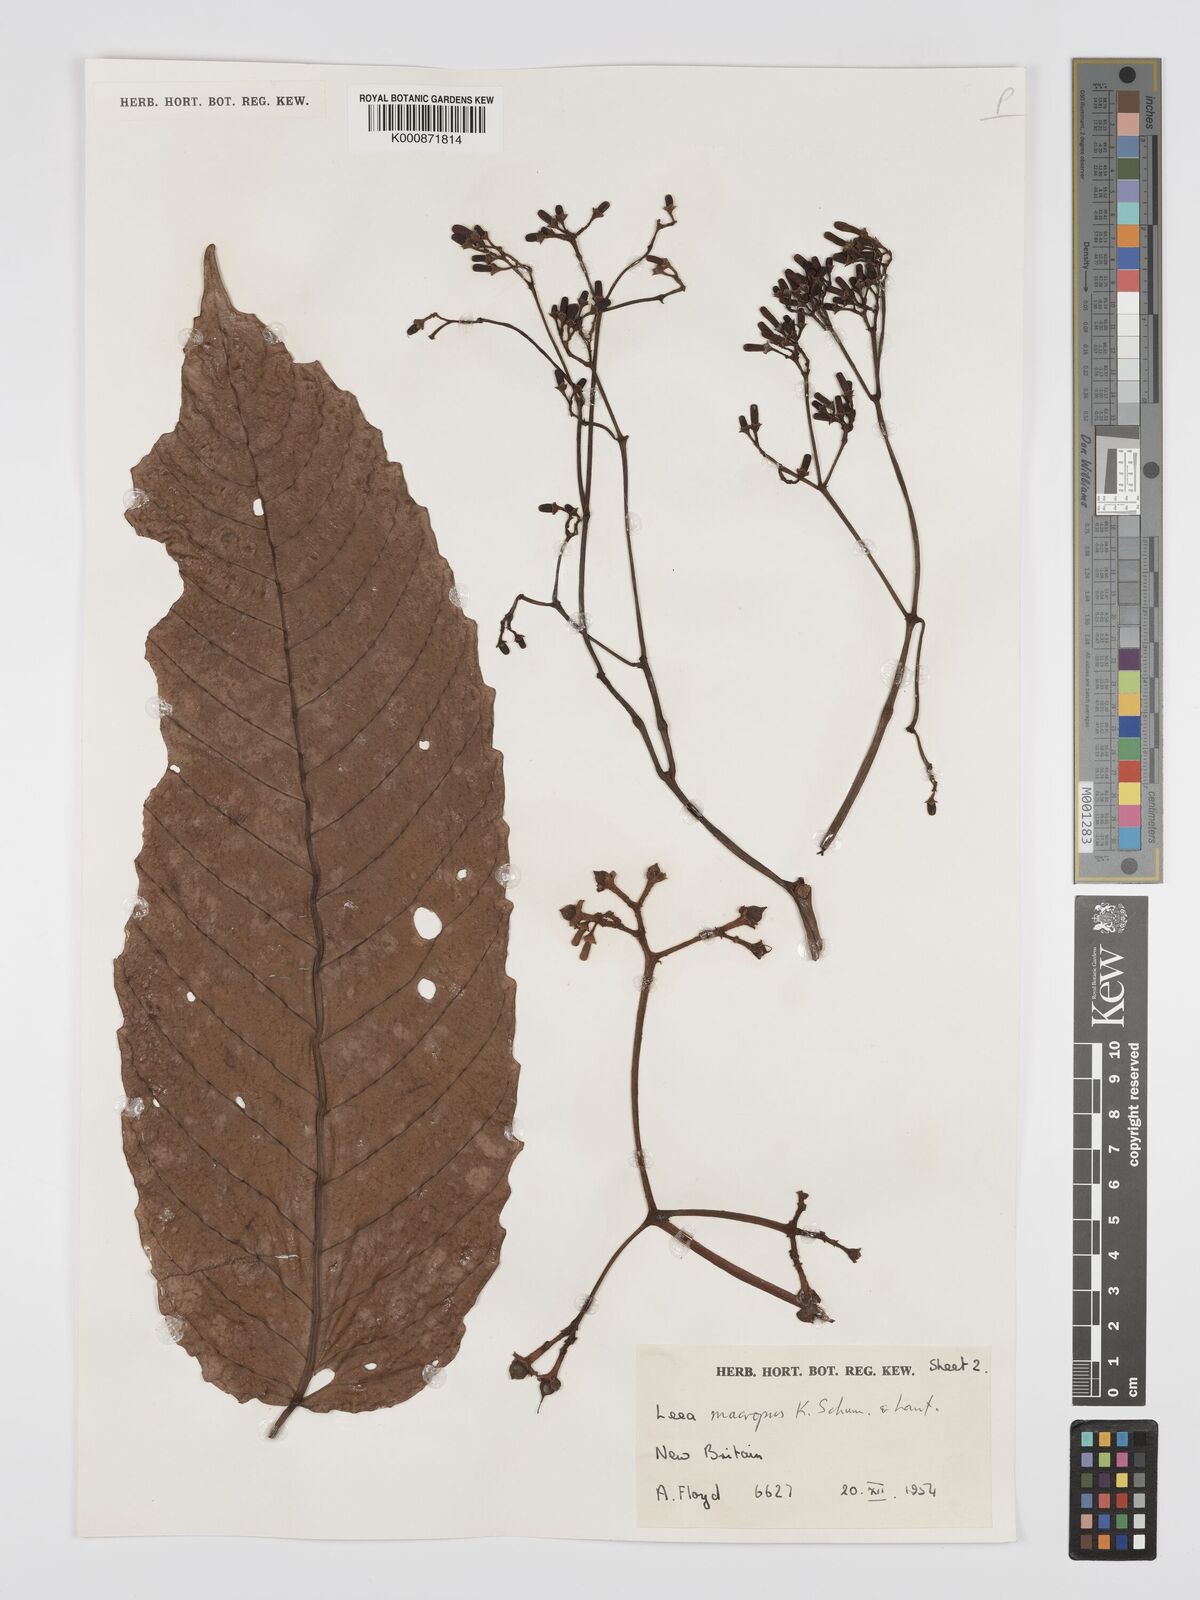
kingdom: Plantae
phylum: Tracheophyta
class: Magnoliopsida
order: Vitales
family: Vitaceae
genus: Leea
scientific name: Leea macropus
